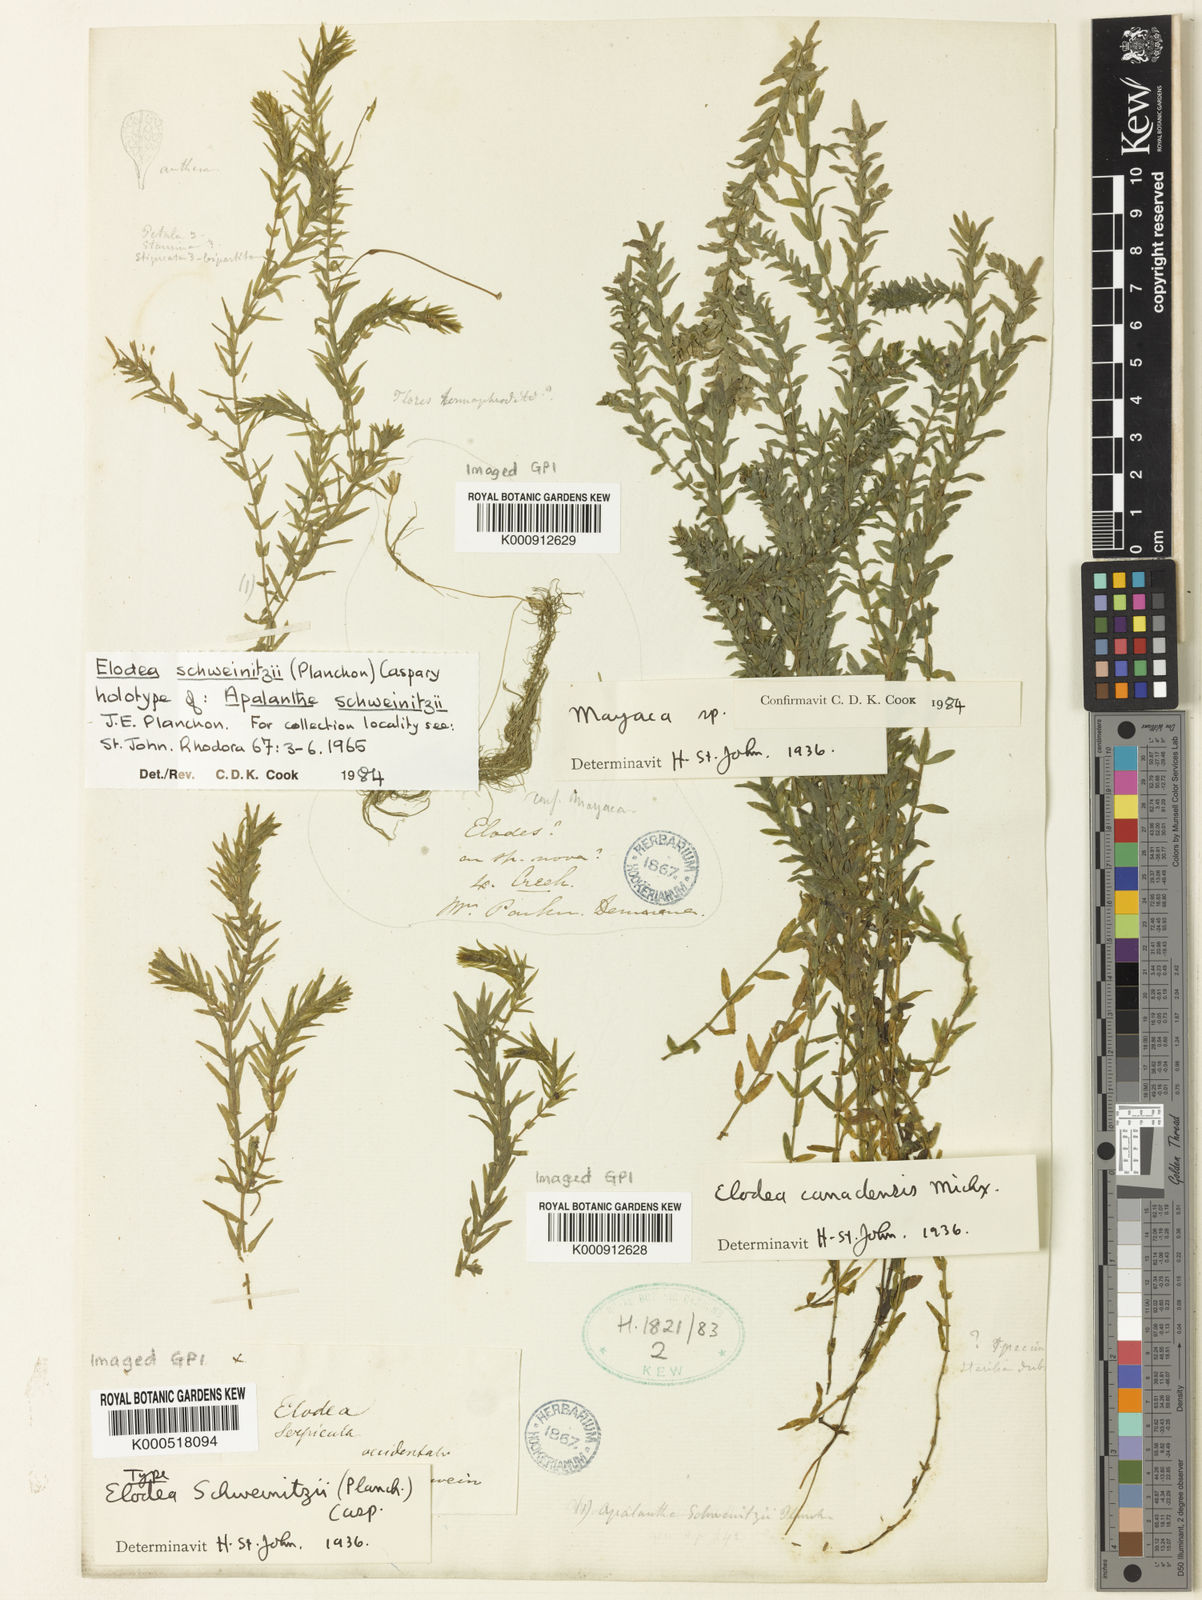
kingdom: Plantae
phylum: Tracheophyta
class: Liliopsida
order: Alismatales
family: Hydrocharitaceae
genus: Elodea
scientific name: Elodea canadensis
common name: Canadian waterweed
